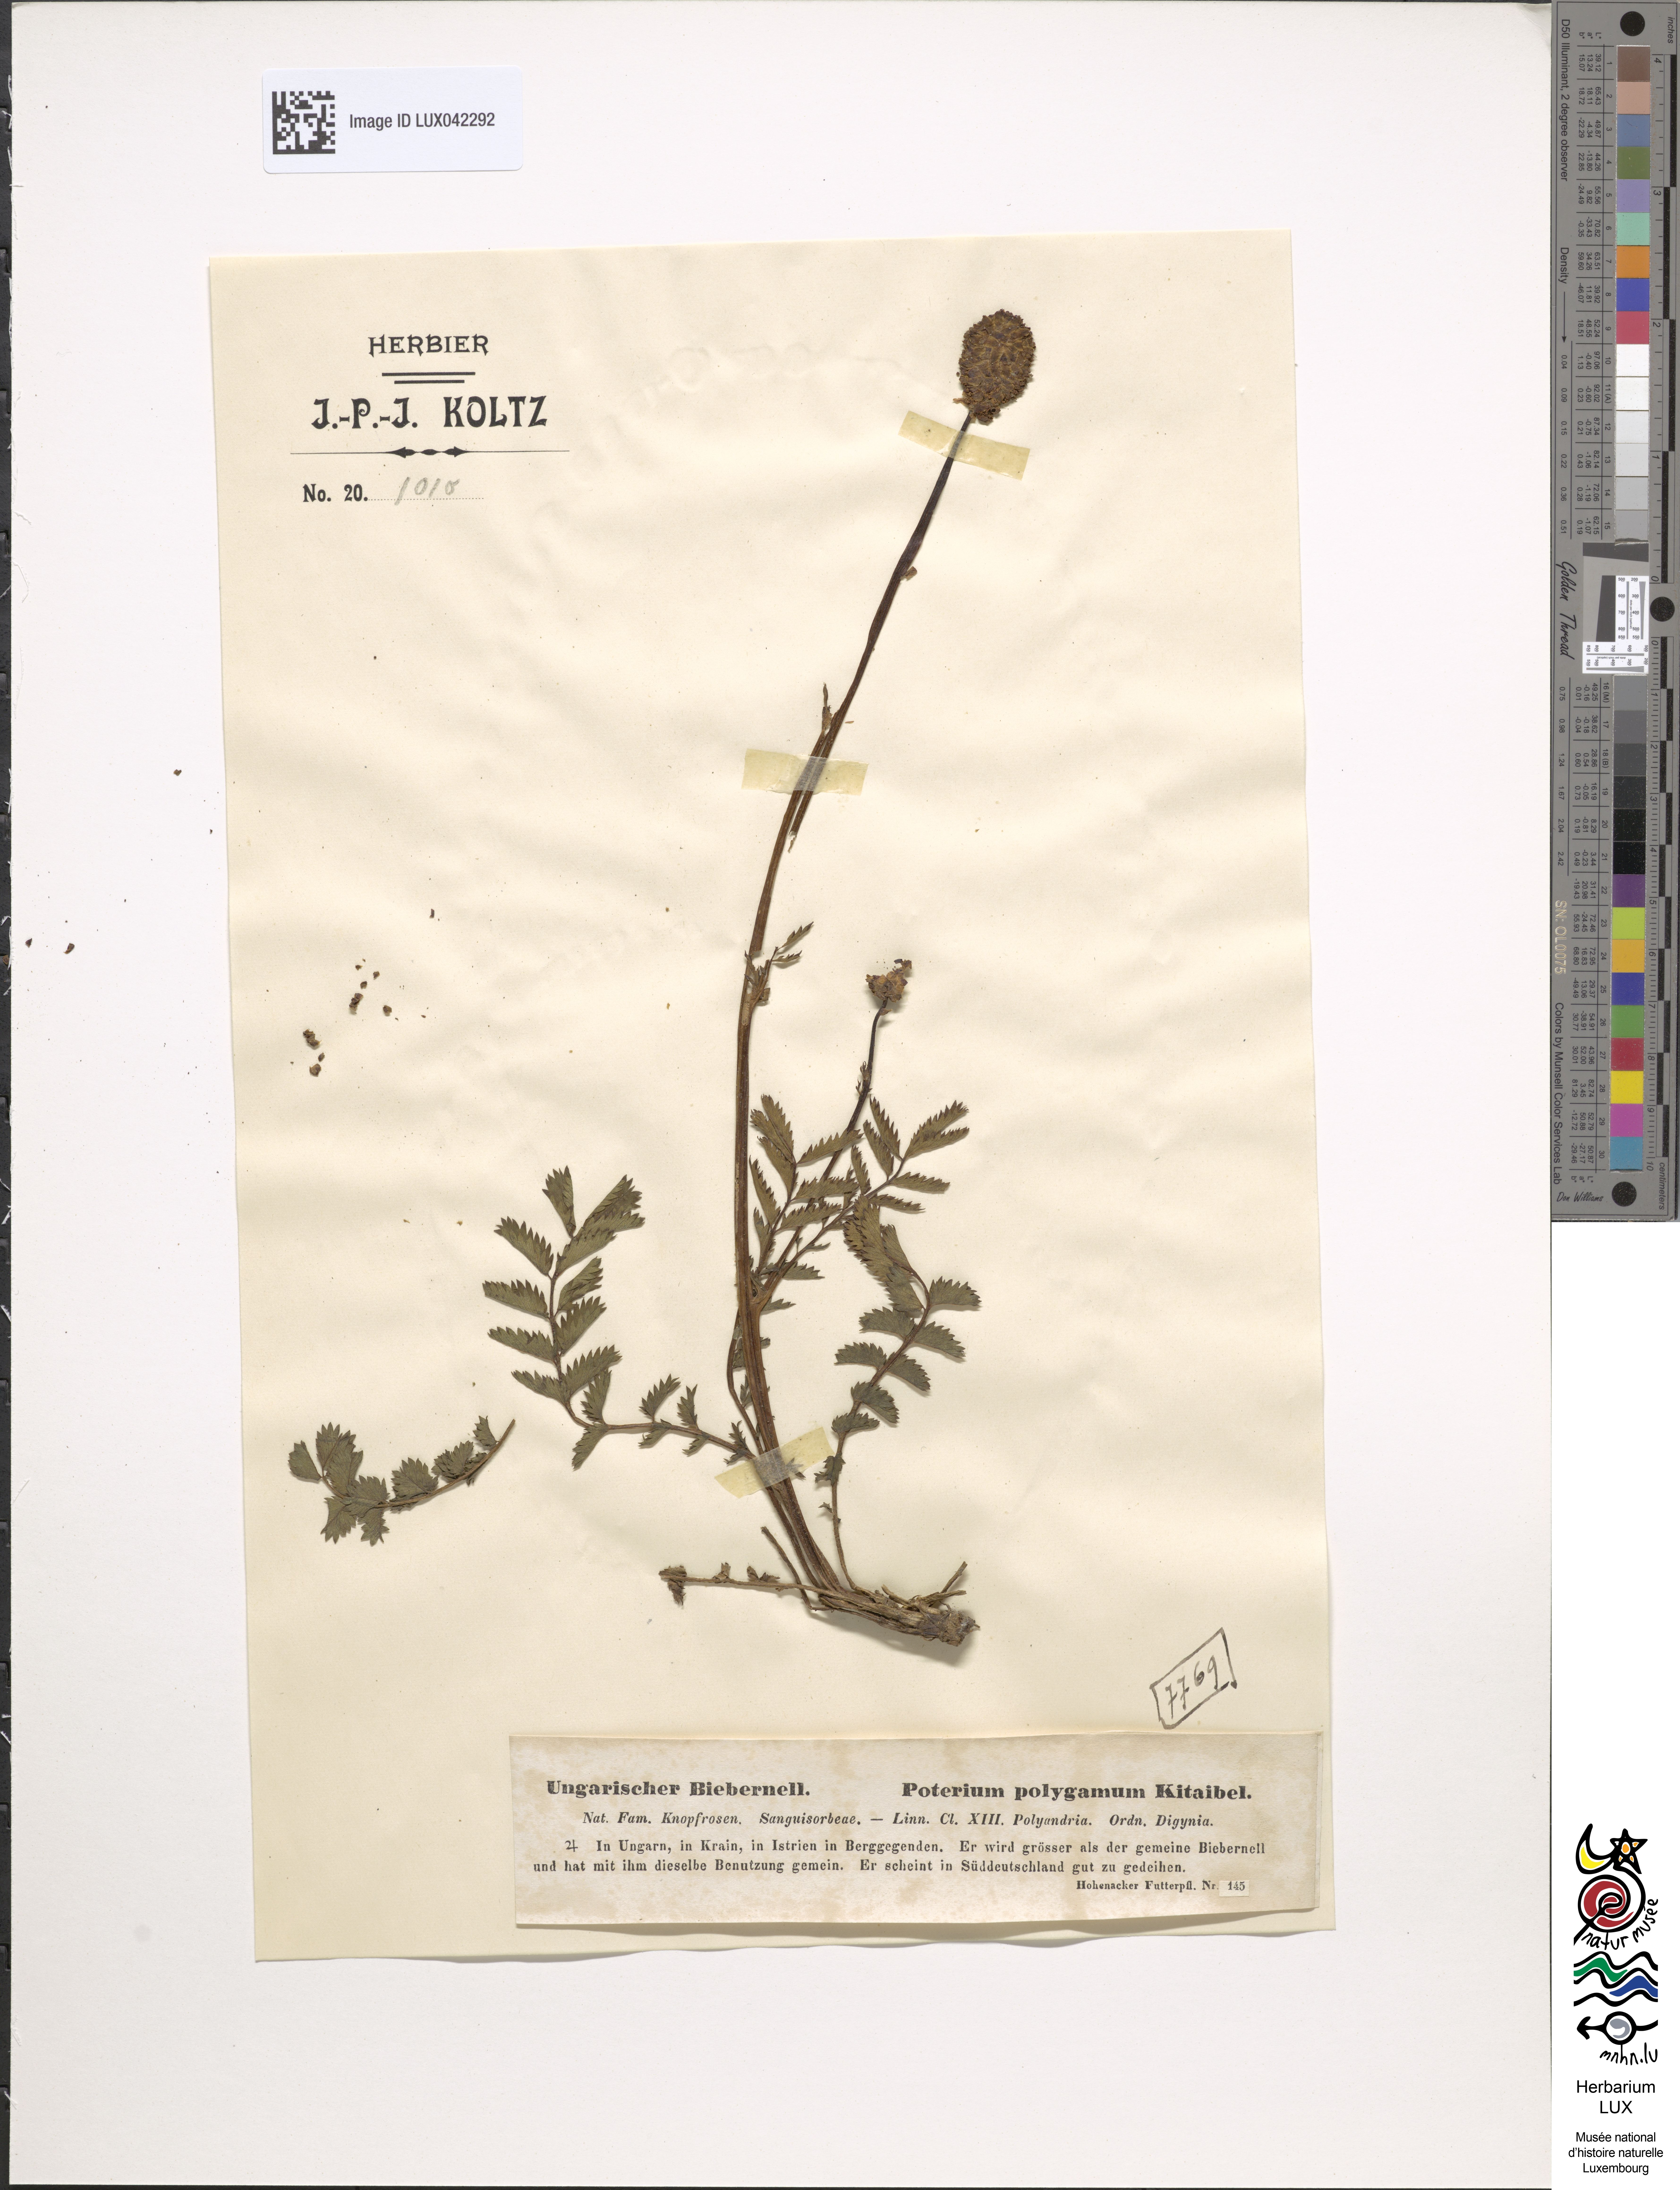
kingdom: Plantae
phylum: Tracheophyta
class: Magnoliopsida
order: Rosales
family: Rosaceae
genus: Poterium
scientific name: Poterium sanguisorba
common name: Salad burnet
